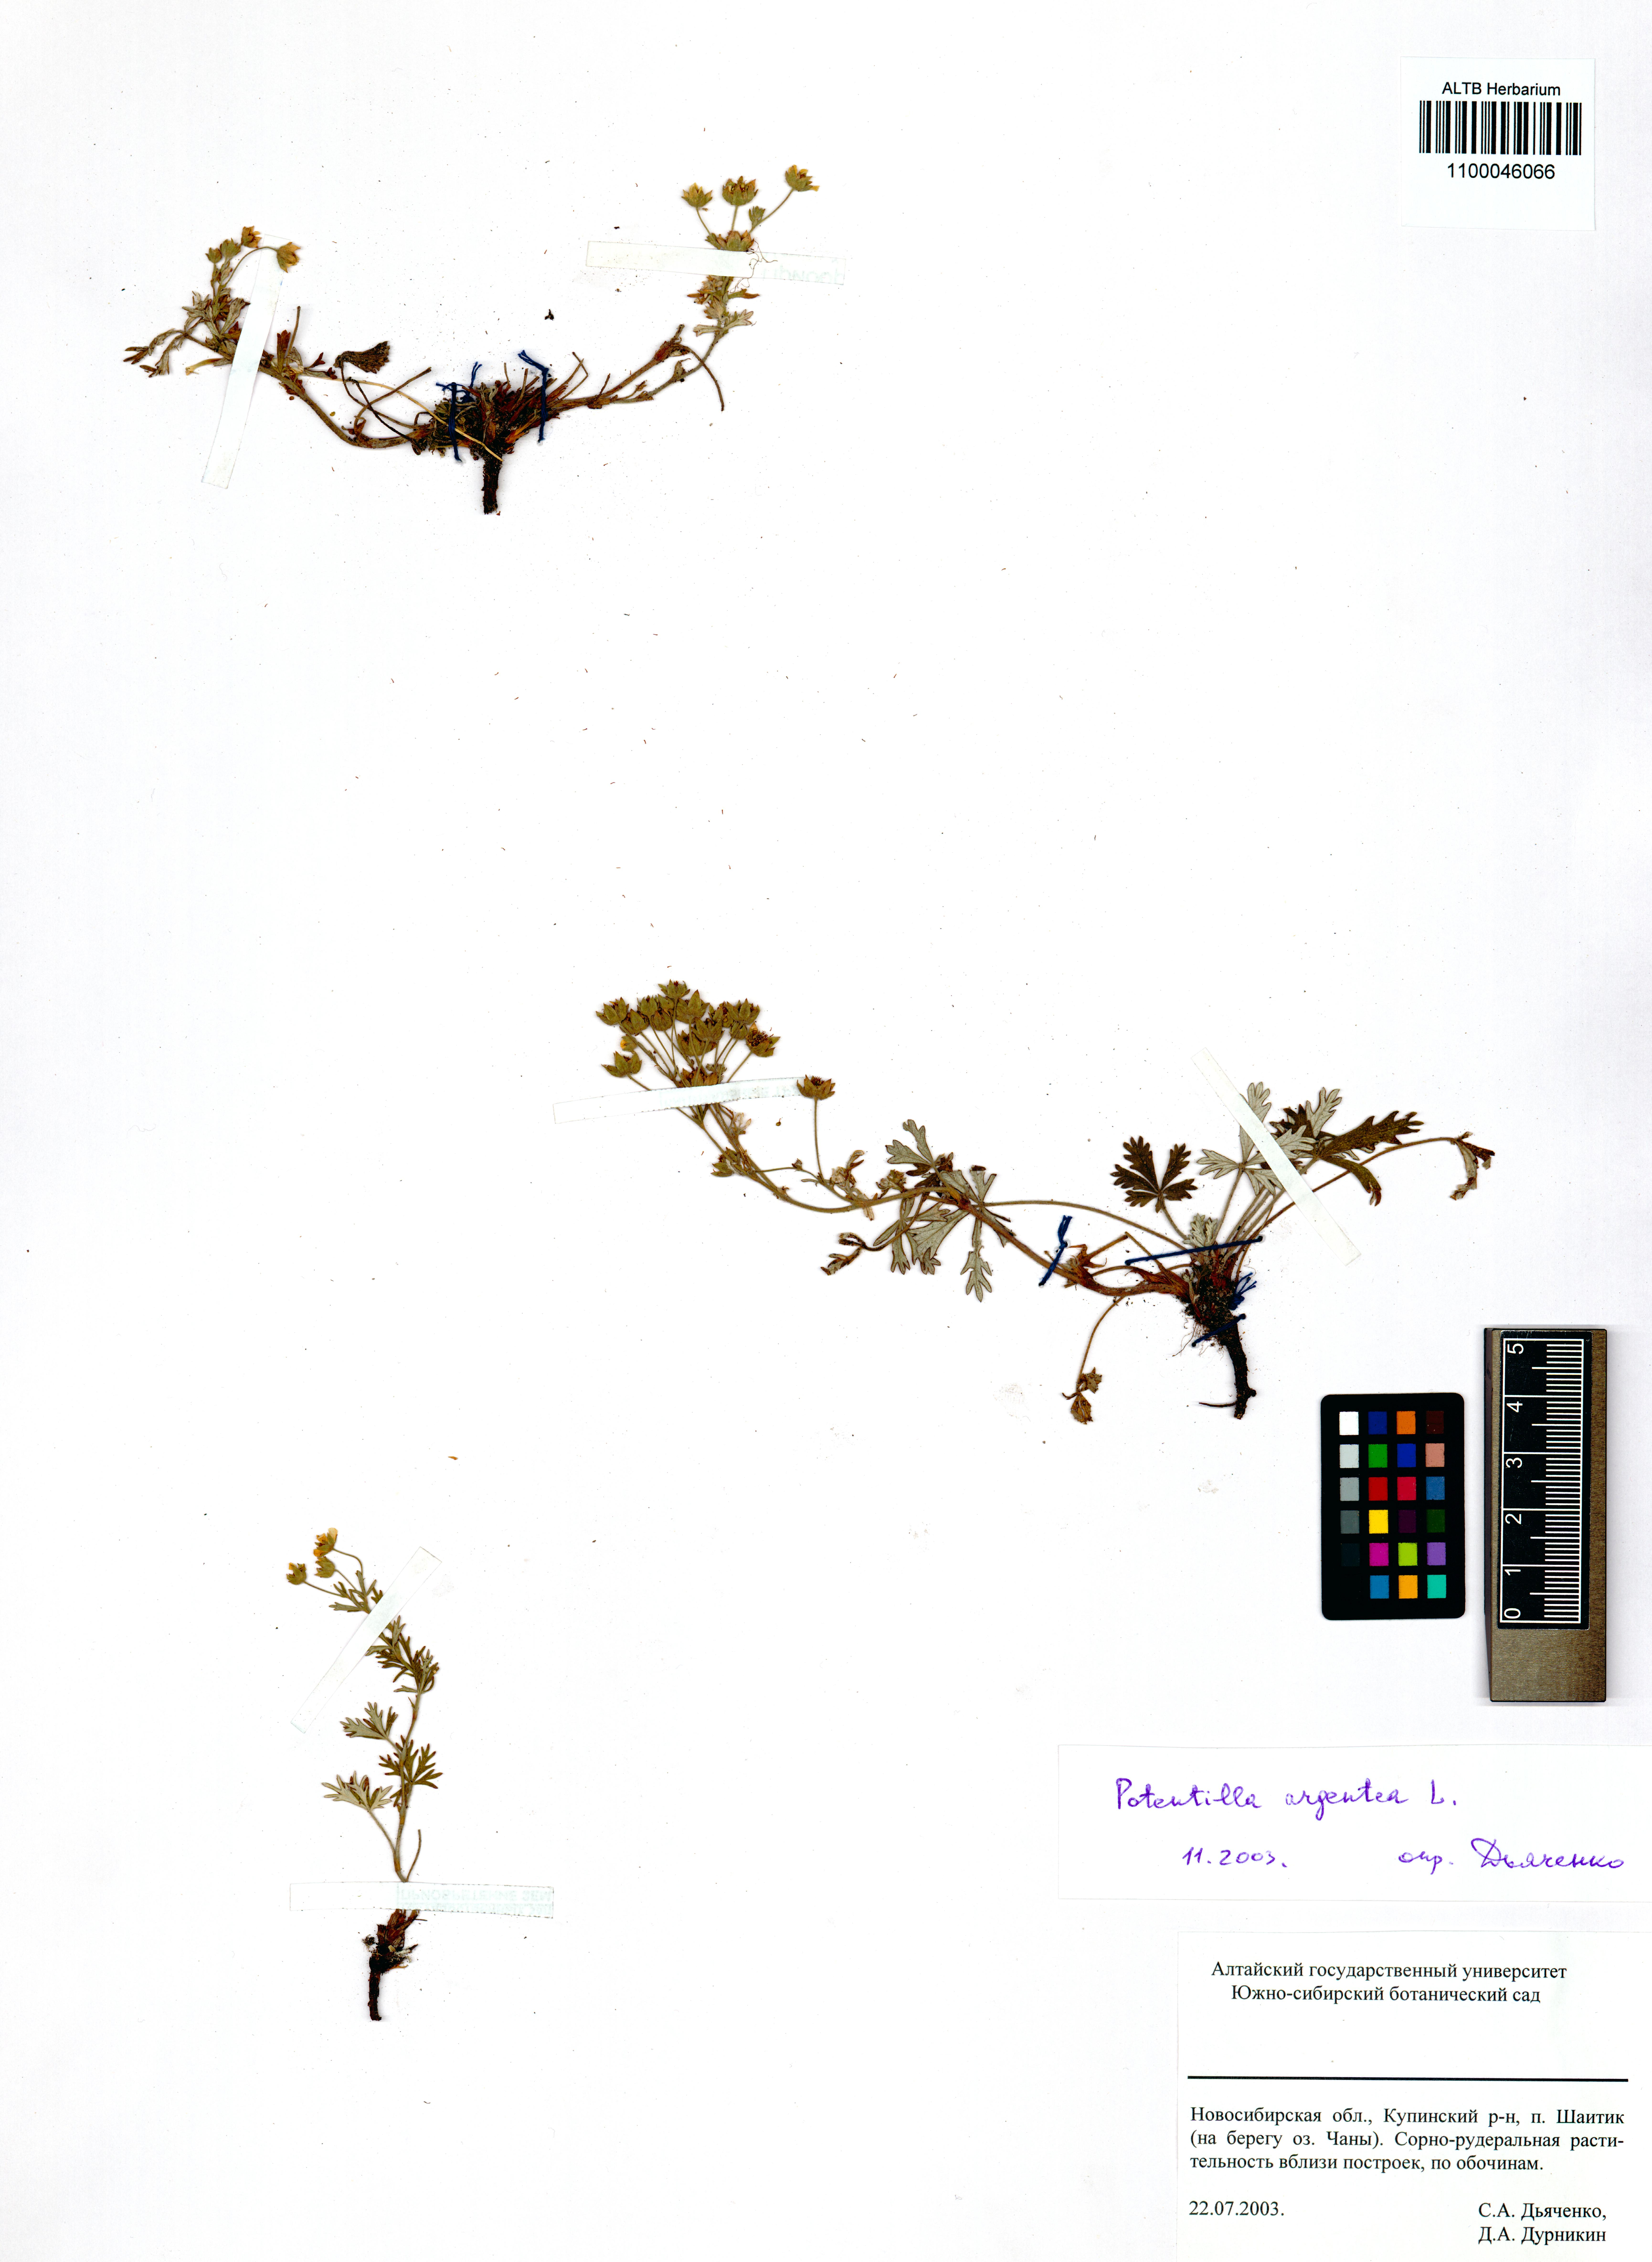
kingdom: Plantae
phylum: Tracheophyta
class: Magnoliopsida
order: Rosales
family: Rosaceae
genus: Potentilla
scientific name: Potentilla argentea
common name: Hoary cinquefoil
